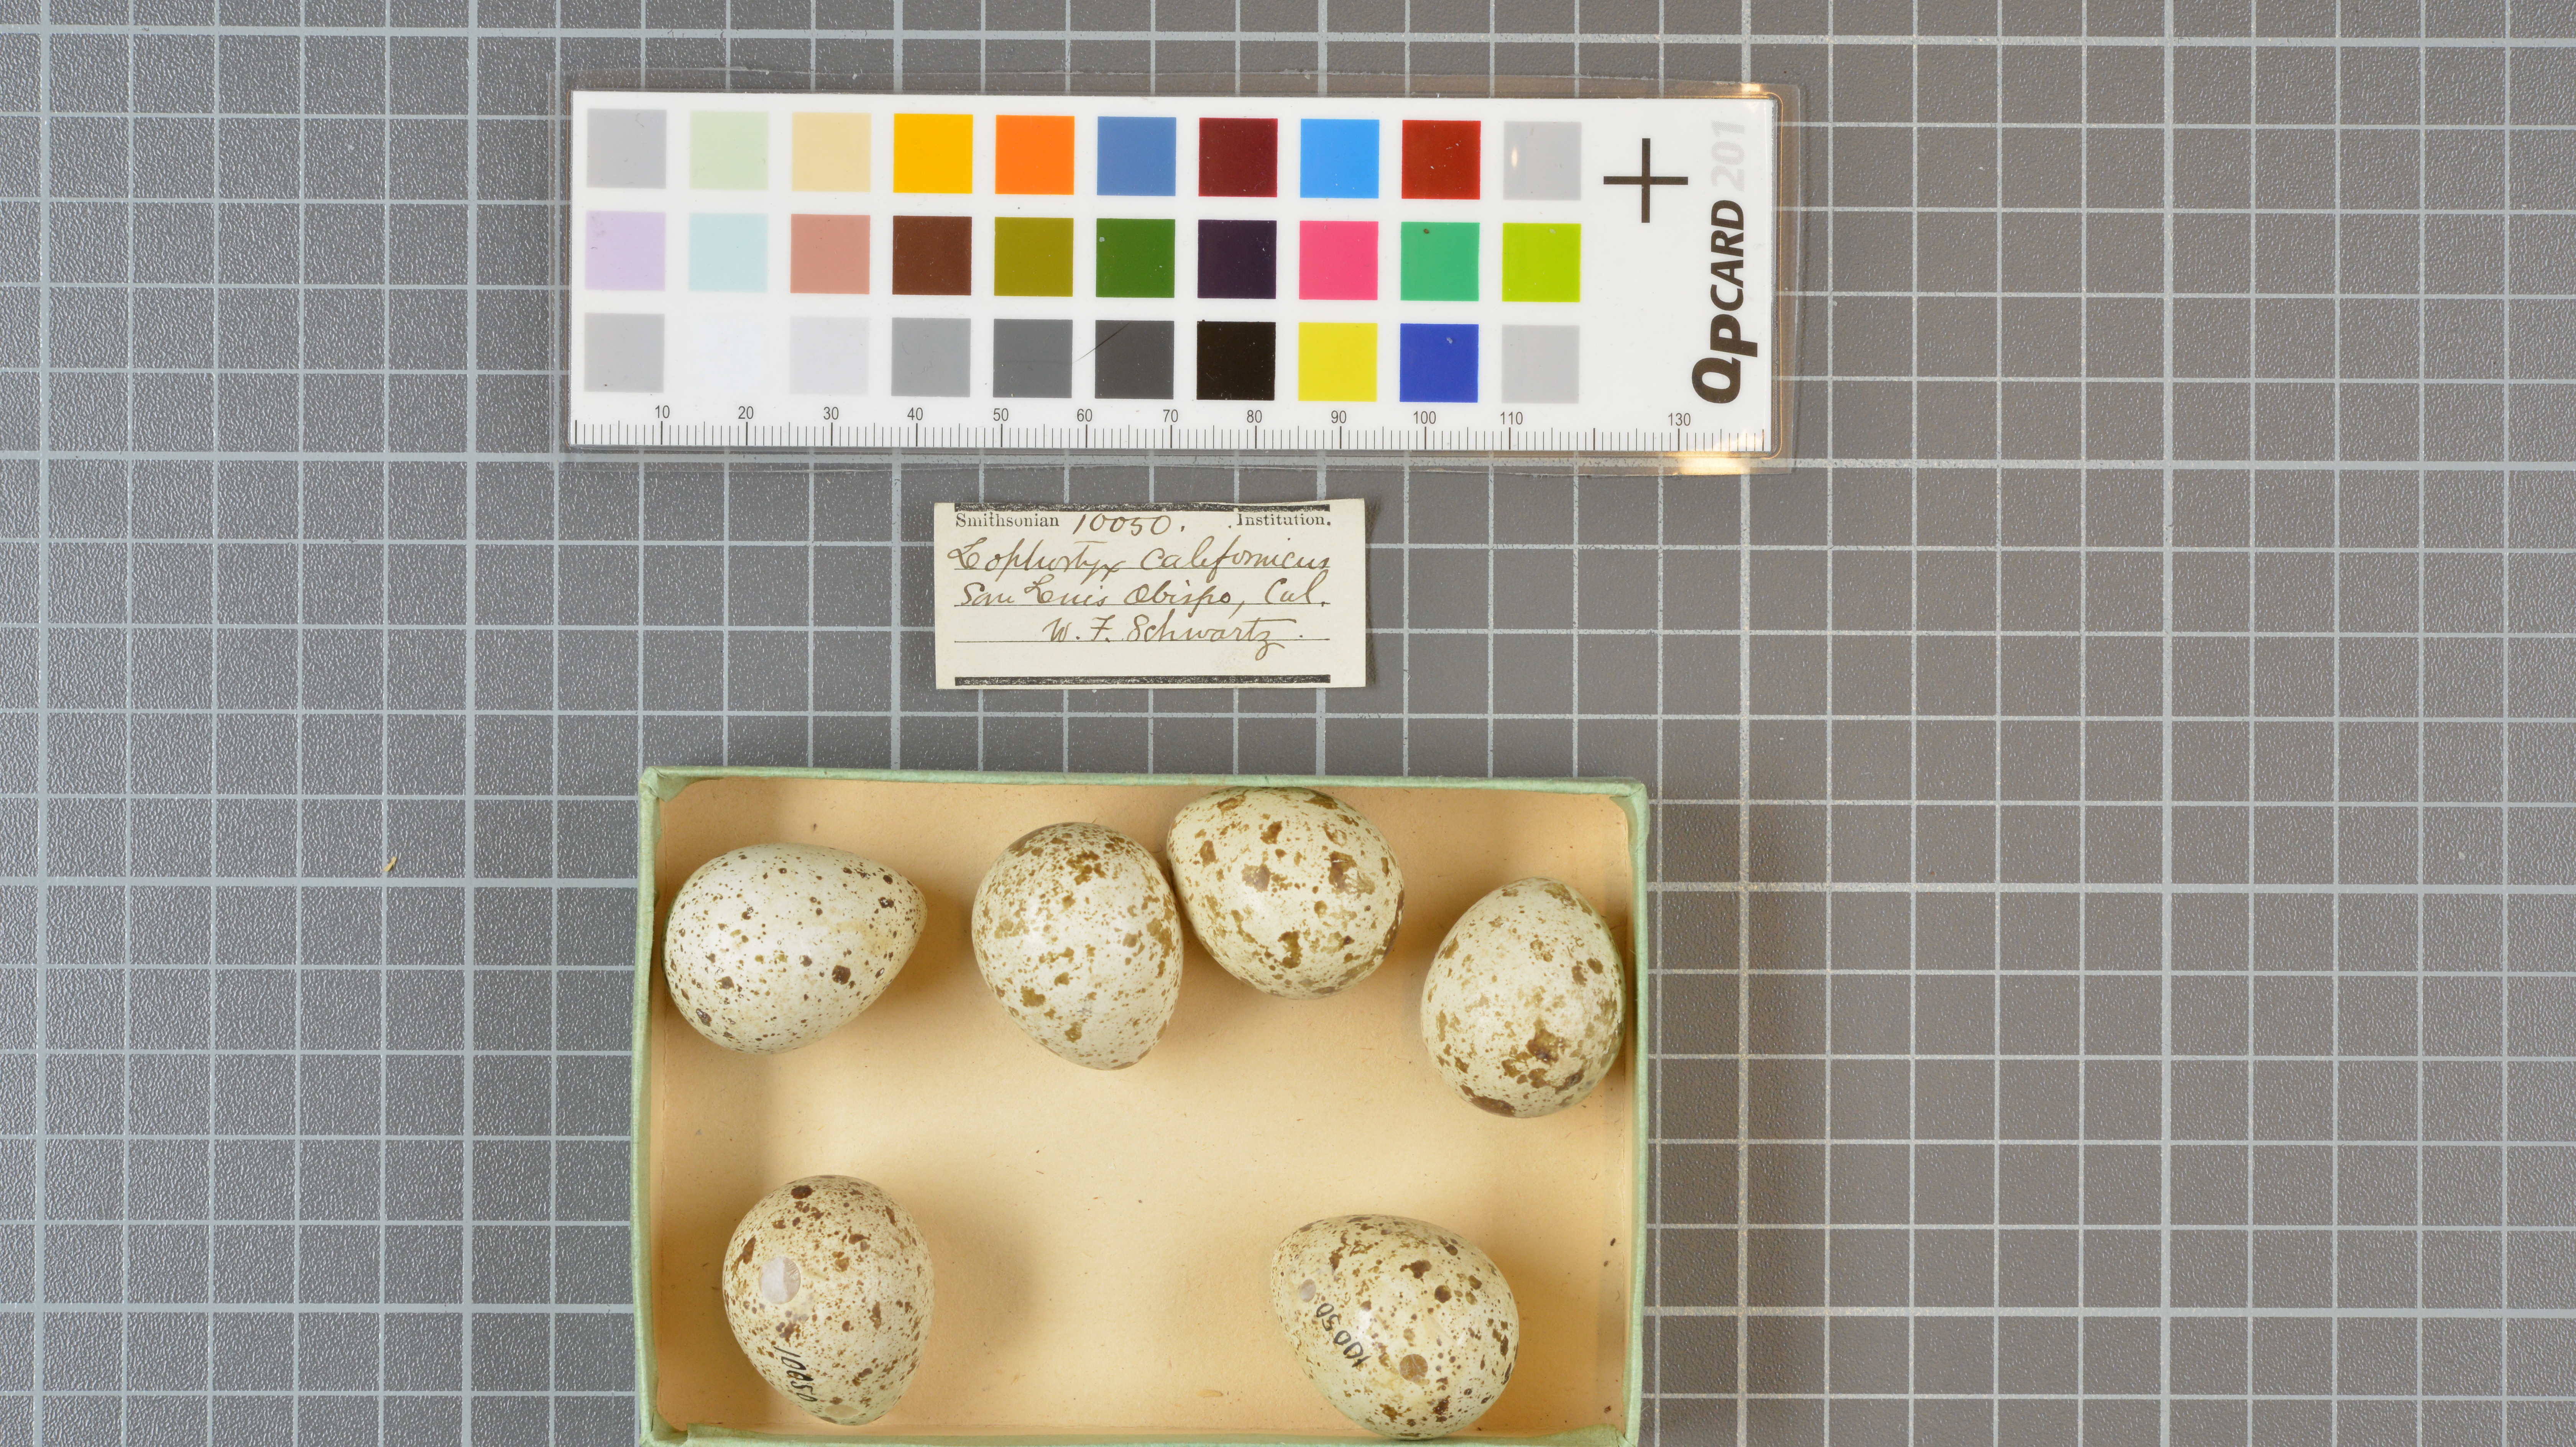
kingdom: Animalia
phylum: Chordata
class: Aves
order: Galliformes
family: Odontophoridae
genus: Callipepla
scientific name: Callipepla californica
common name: California quail
